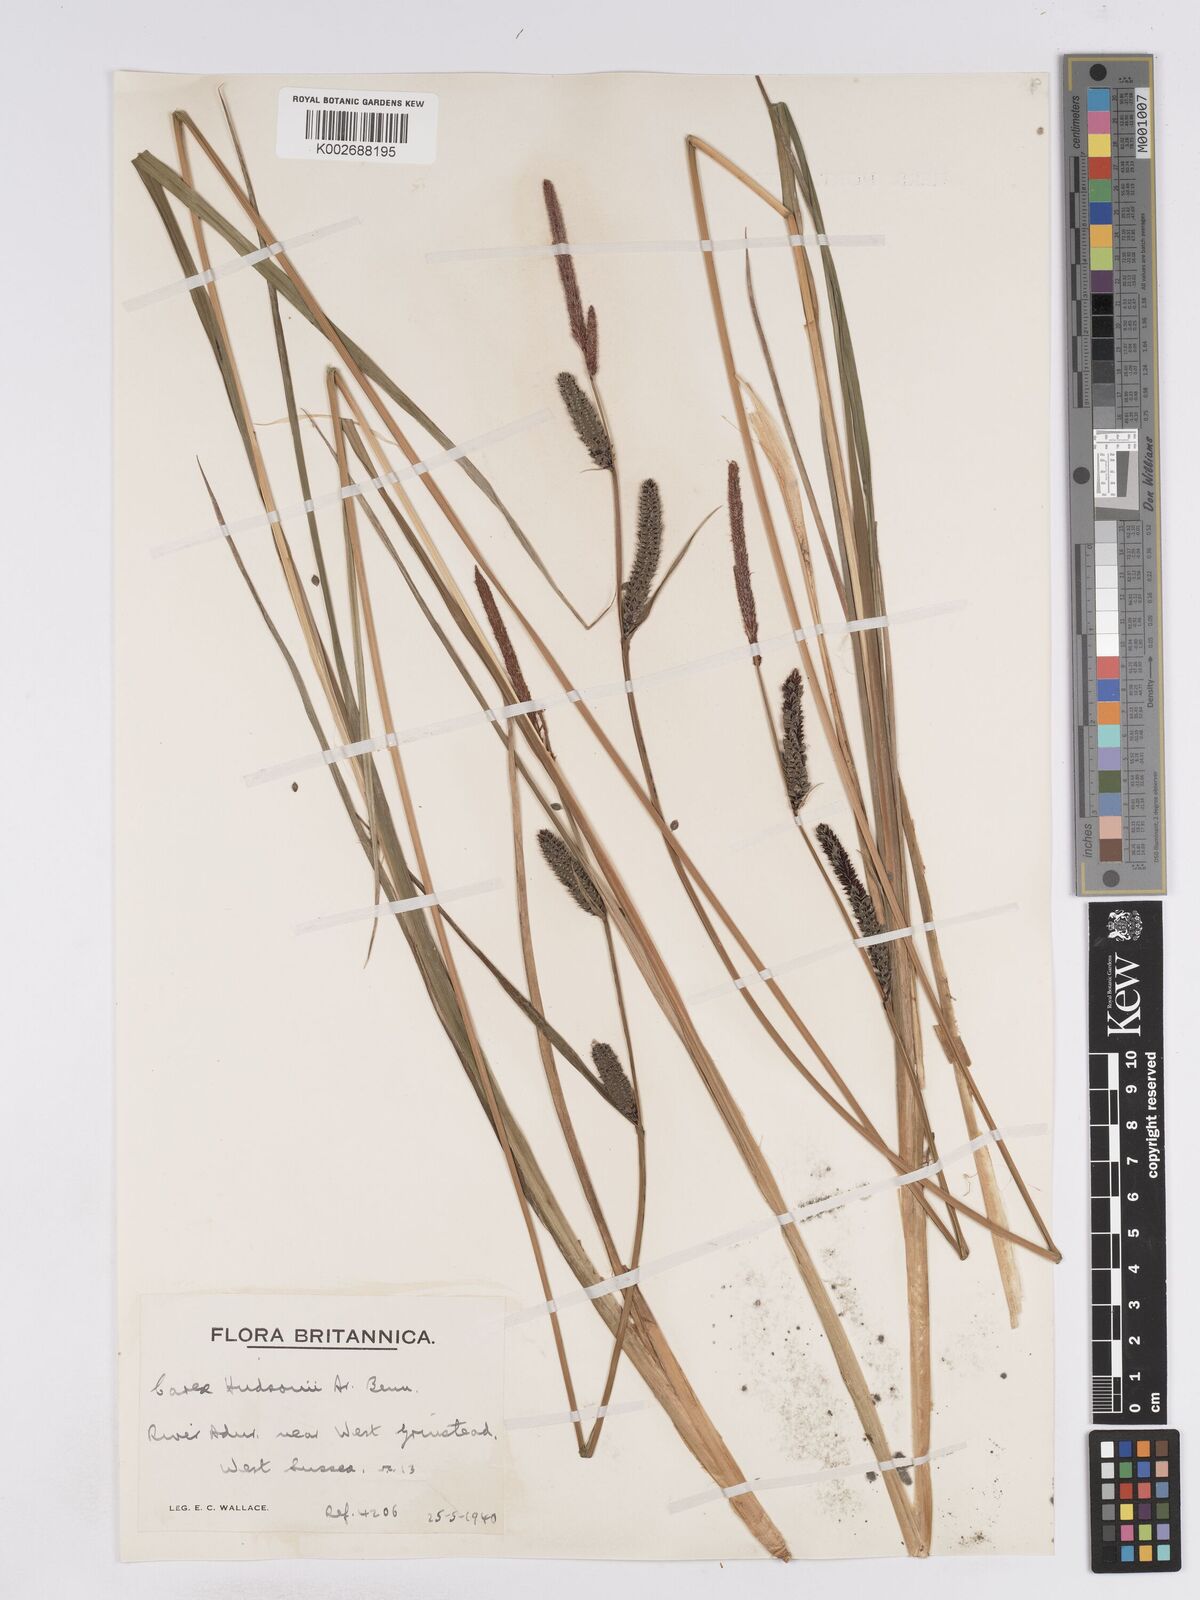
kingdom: Plantae
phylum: Tracheophyta
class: Liliopsida
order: Poales
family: Cyperaceae
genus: Carex
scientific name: Carex elata
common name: Tufted sedge
